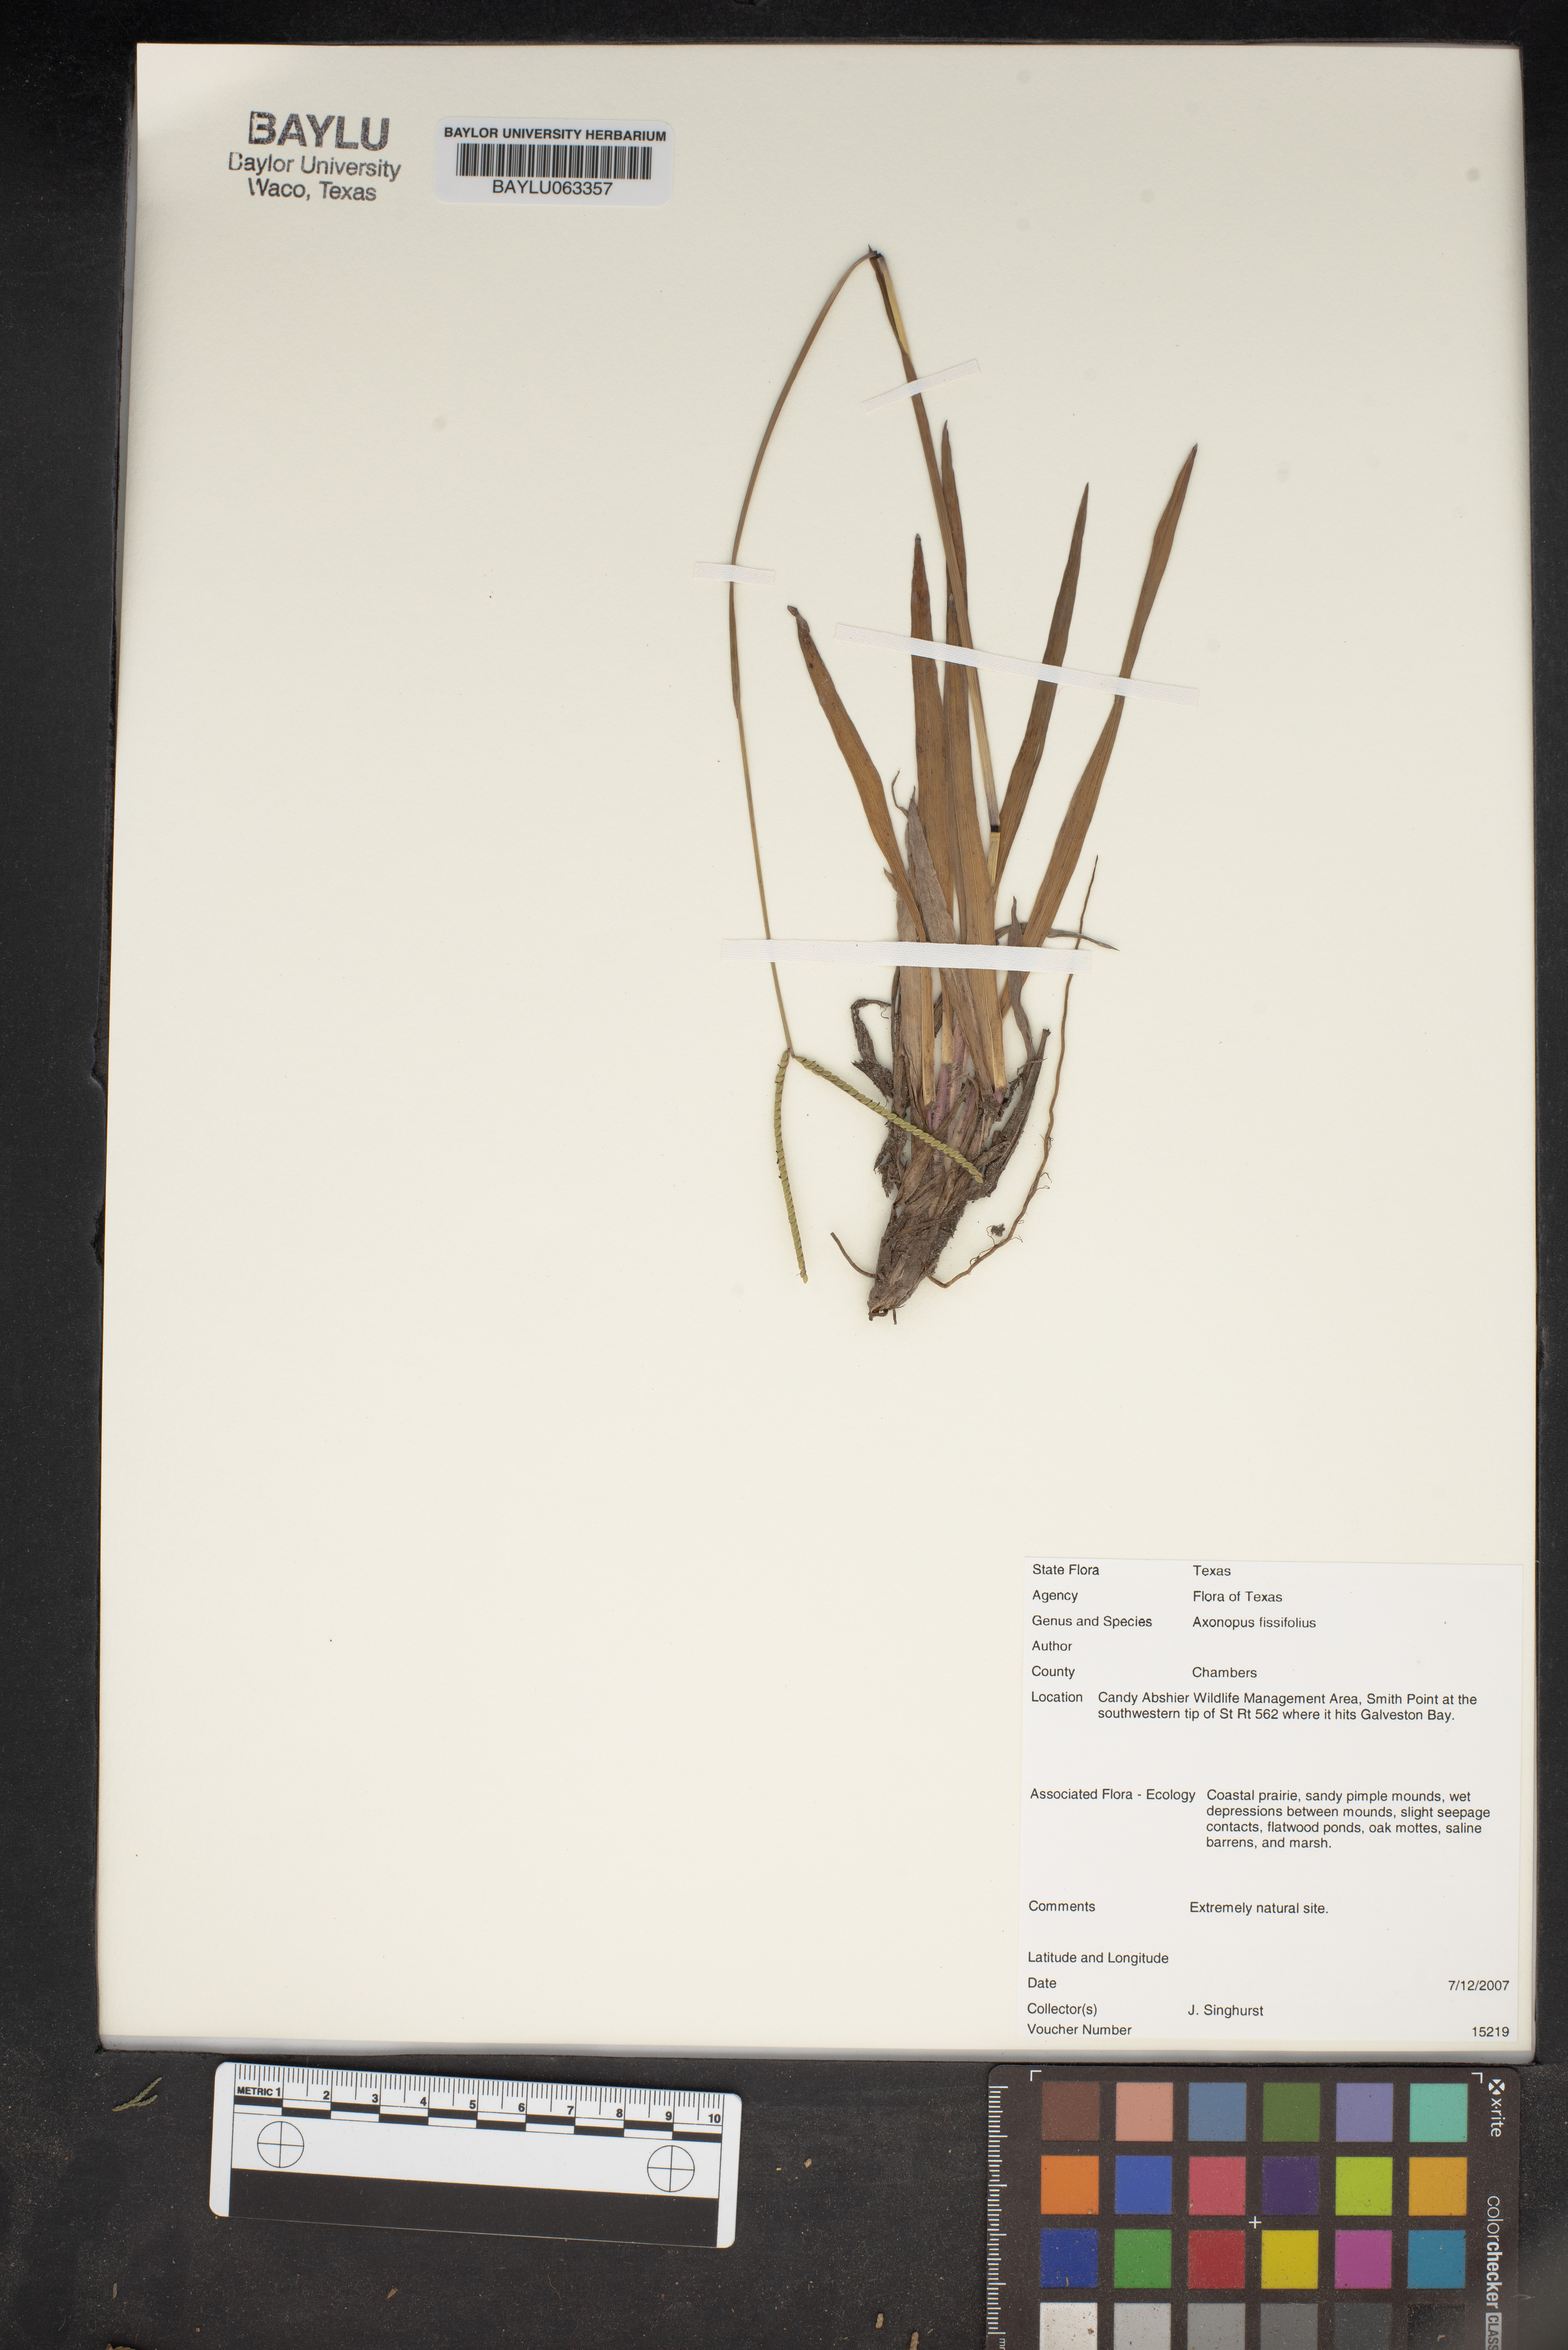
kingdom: Plantae
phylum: Tracheophyta
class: Liliopsida
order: Poales
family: Poaceae
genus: Axonopus
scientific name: Axonopus fissifolius
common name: Common carpetgrass
